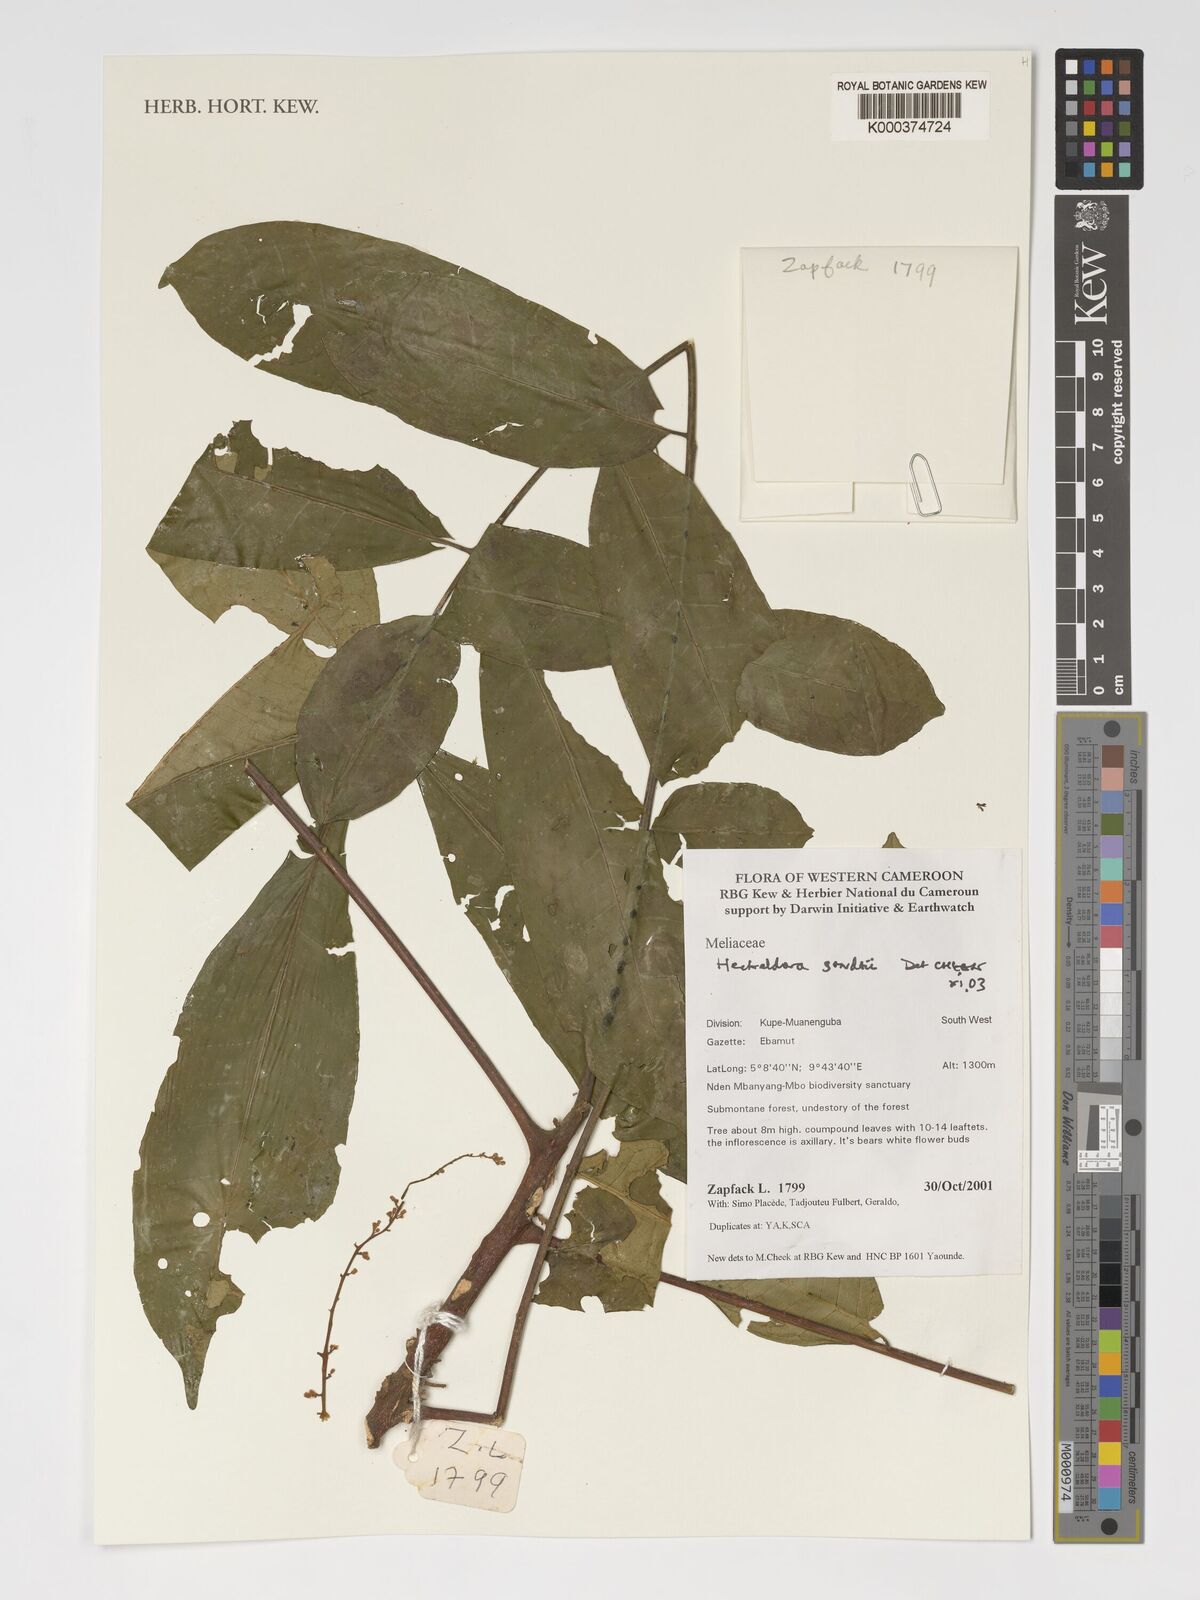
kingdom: Plantae
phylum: Tracheophyta
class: Magnoliopsida
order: Sapindales
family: Meliaceae
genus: Heckeldora
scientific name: Heckeldora staudtii
